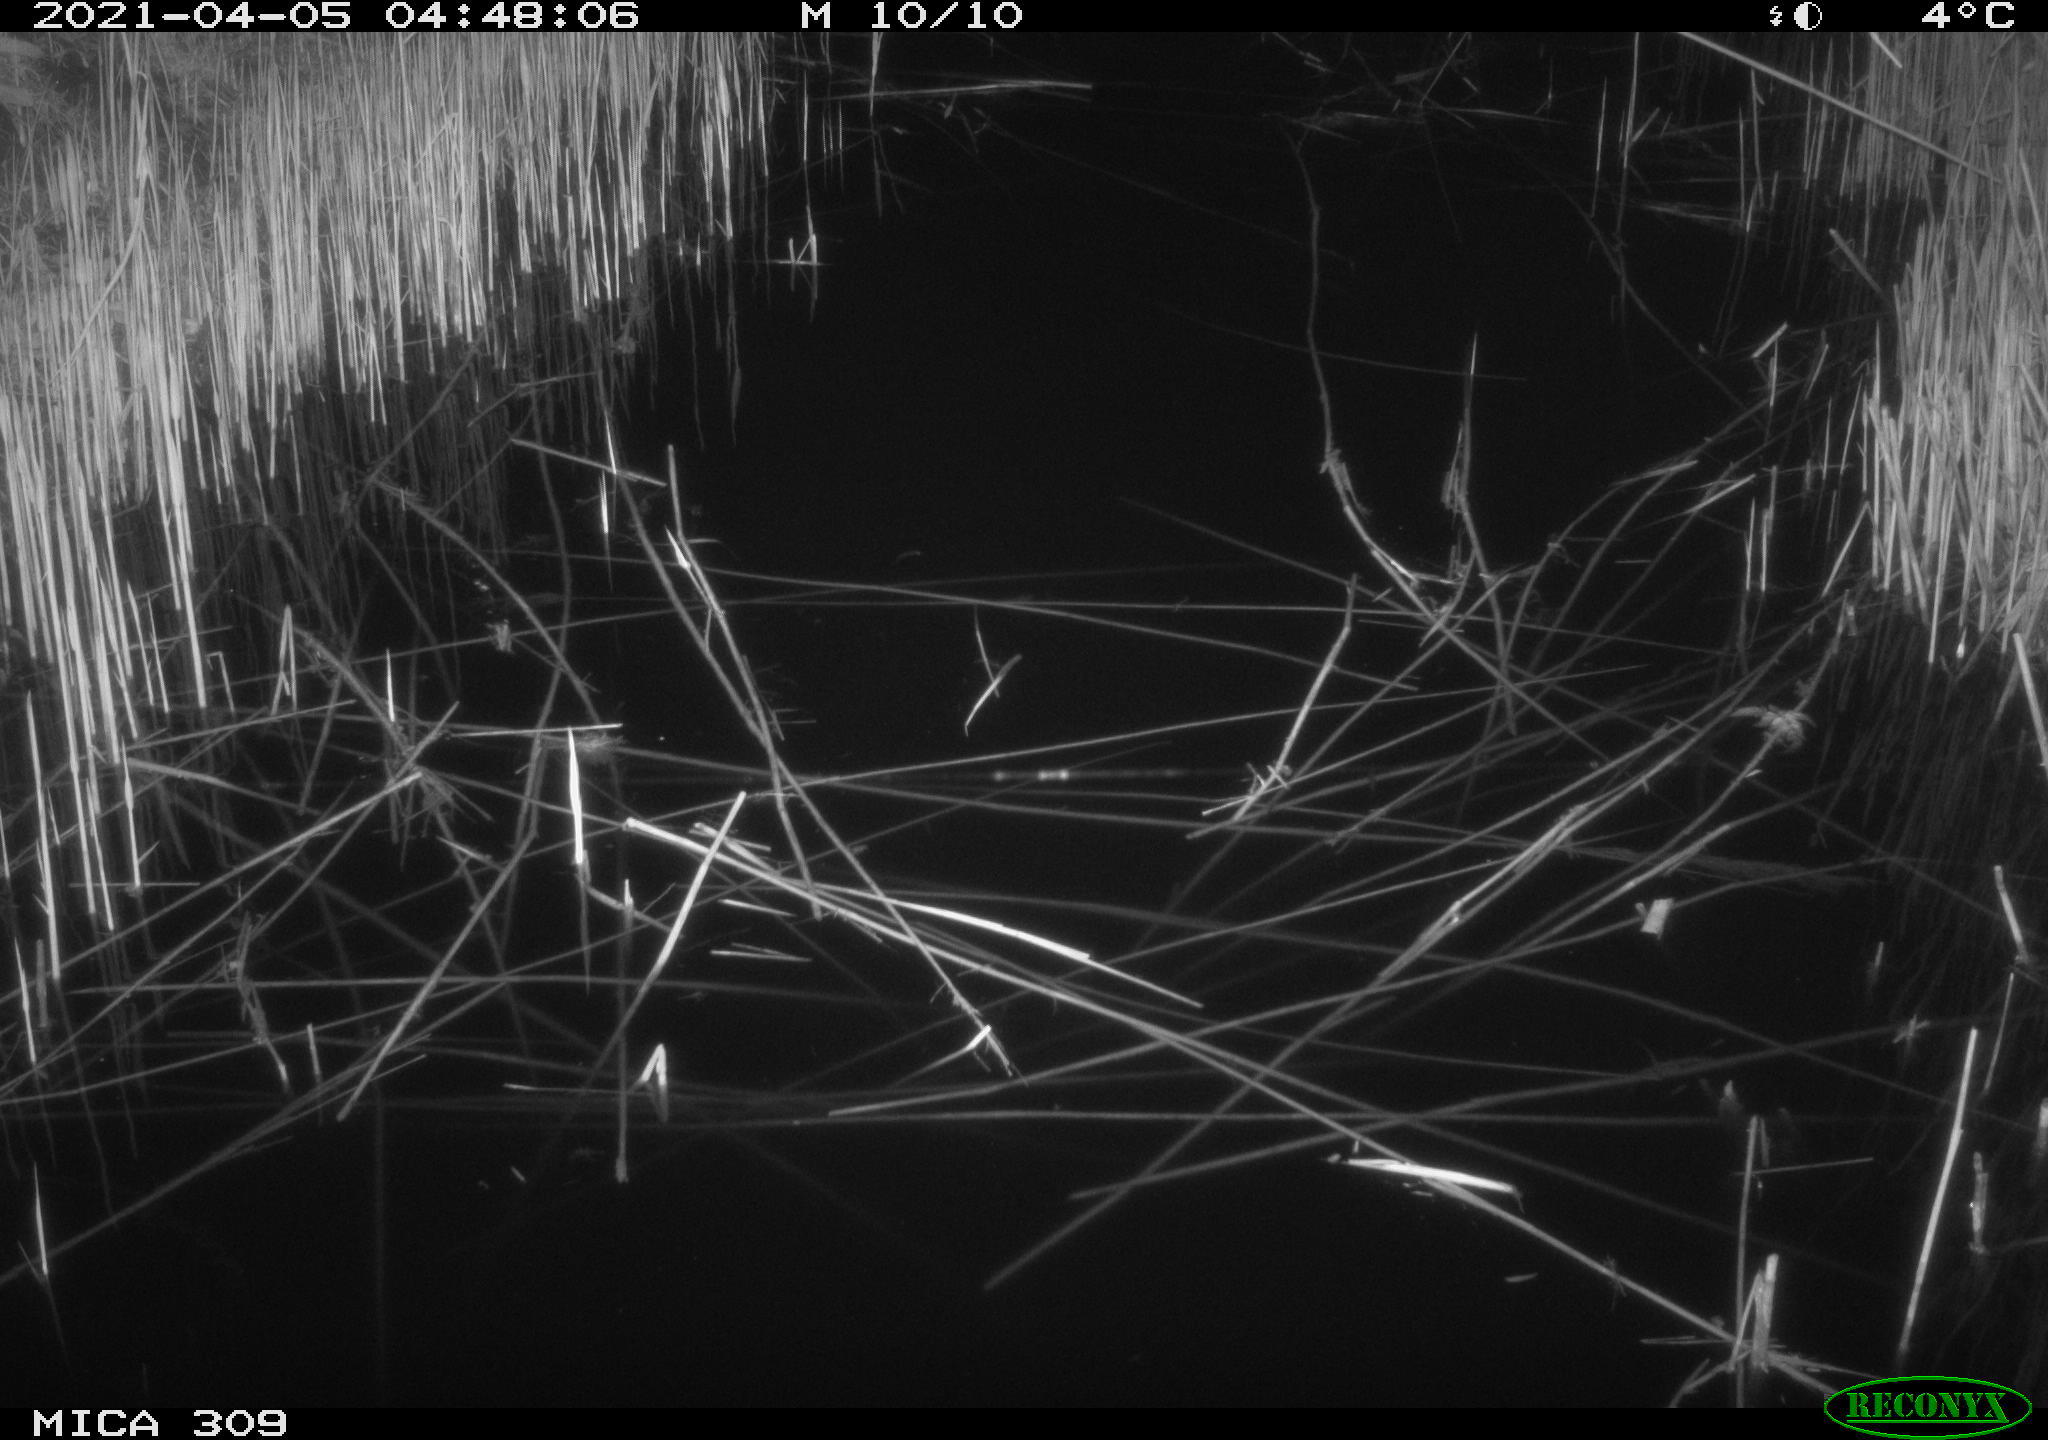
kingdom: Animalia
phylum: Chordata
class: Aves
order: Anseriformes
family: Anatidae
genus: Anas
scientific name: Anas platyrhynchos
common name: Mallard
